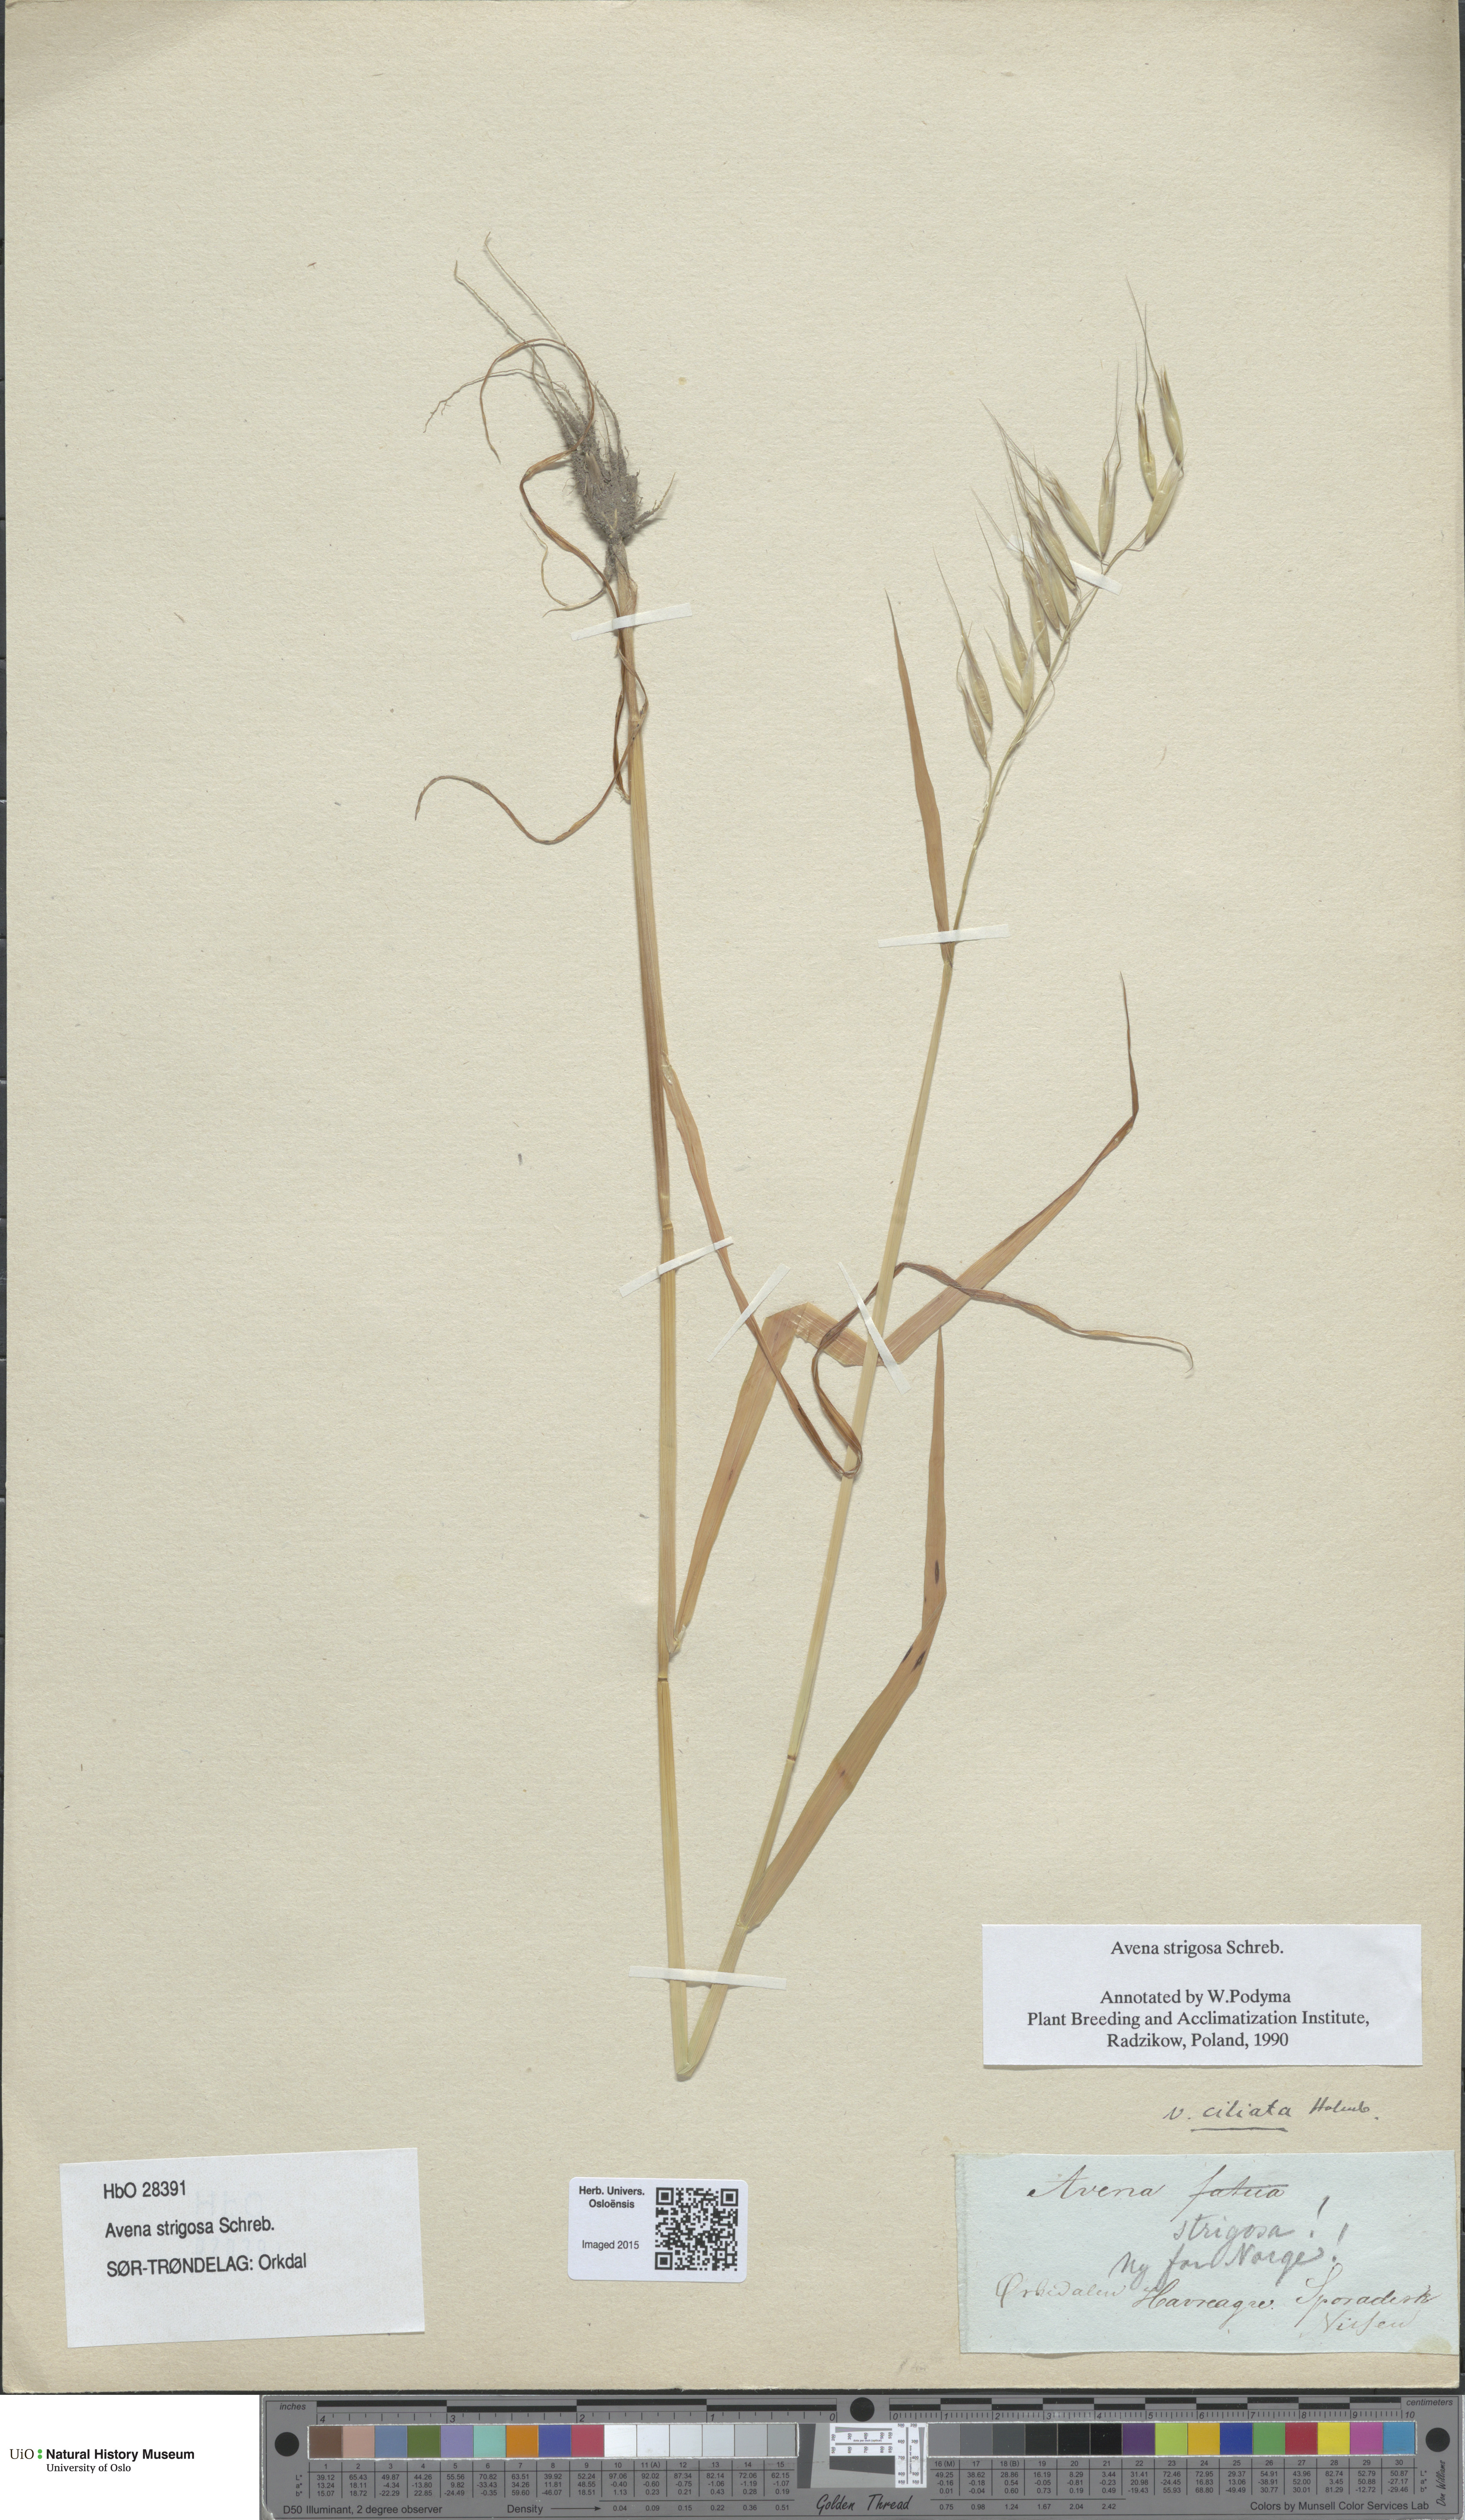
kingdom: Plantae
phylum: Tracheophyta
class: Liliopsida
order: Poales
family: Poaceae
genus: Avena
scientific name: Avena strigosa
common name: Bristle oat
